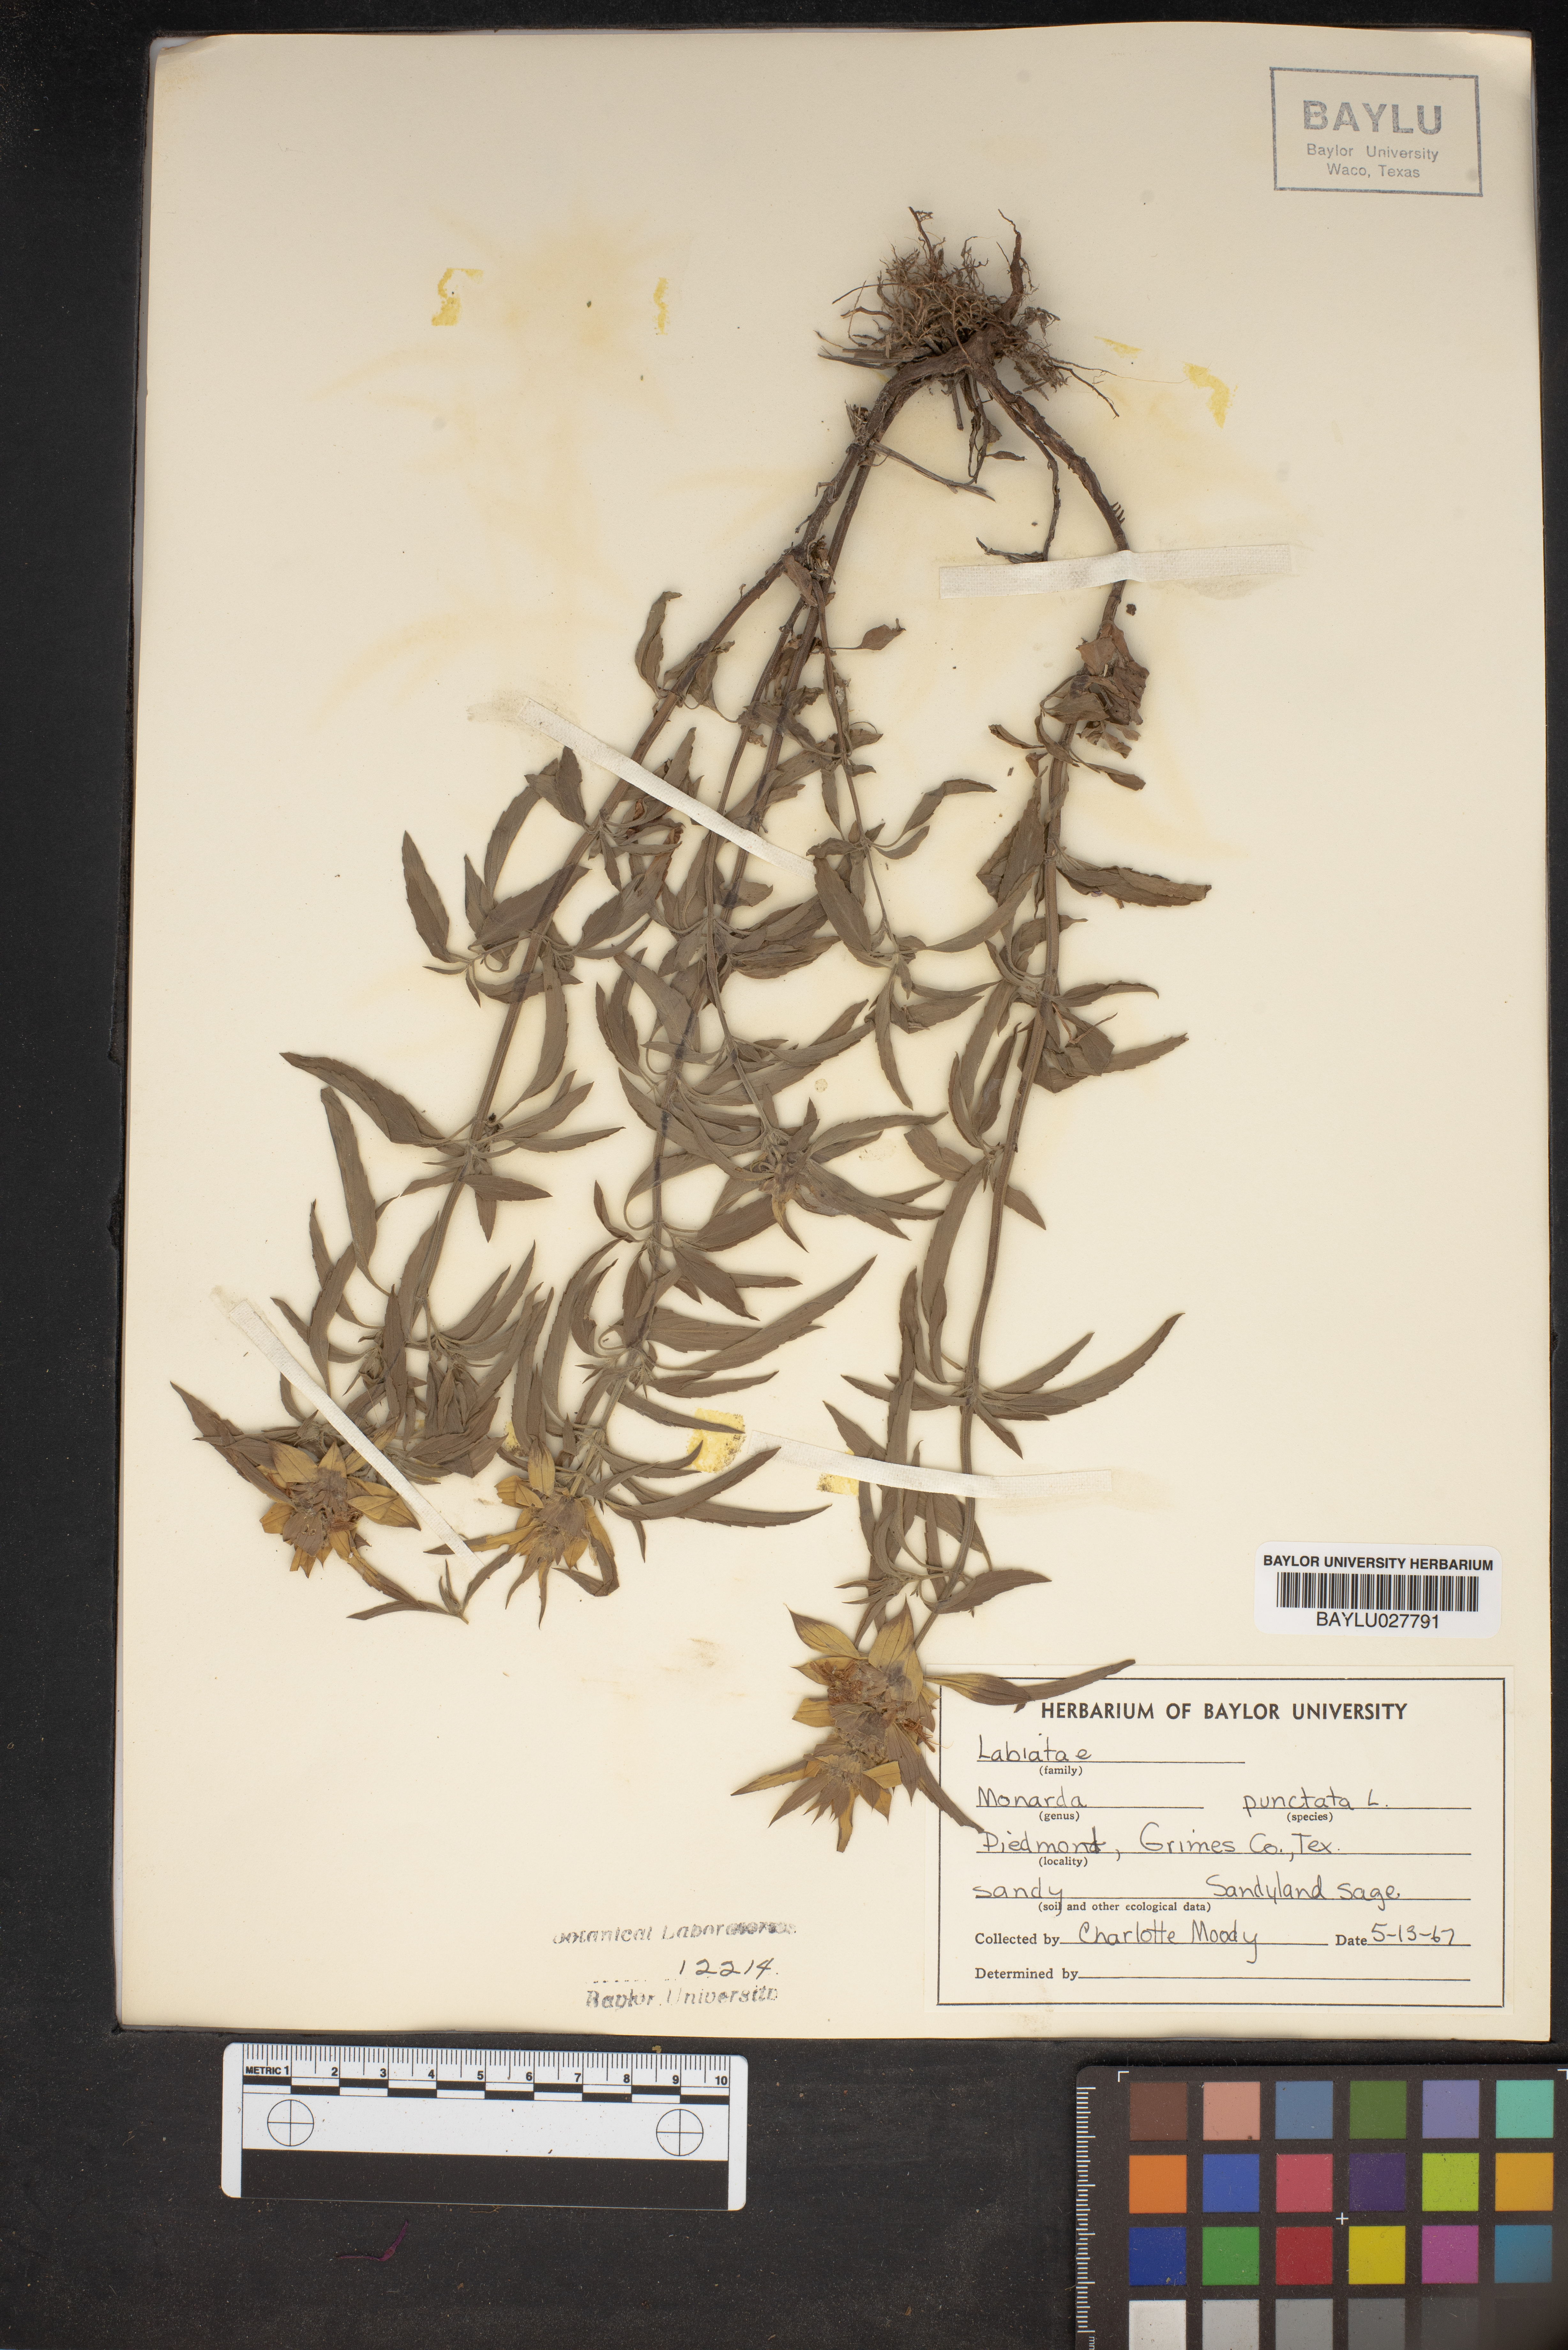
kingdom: Plantae
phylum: Tracheophyta
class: Magnoliopsida
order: Lamiales
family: Lamiaceae
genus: Monarda
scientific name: Monarda punctata
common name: Dotted monarda
